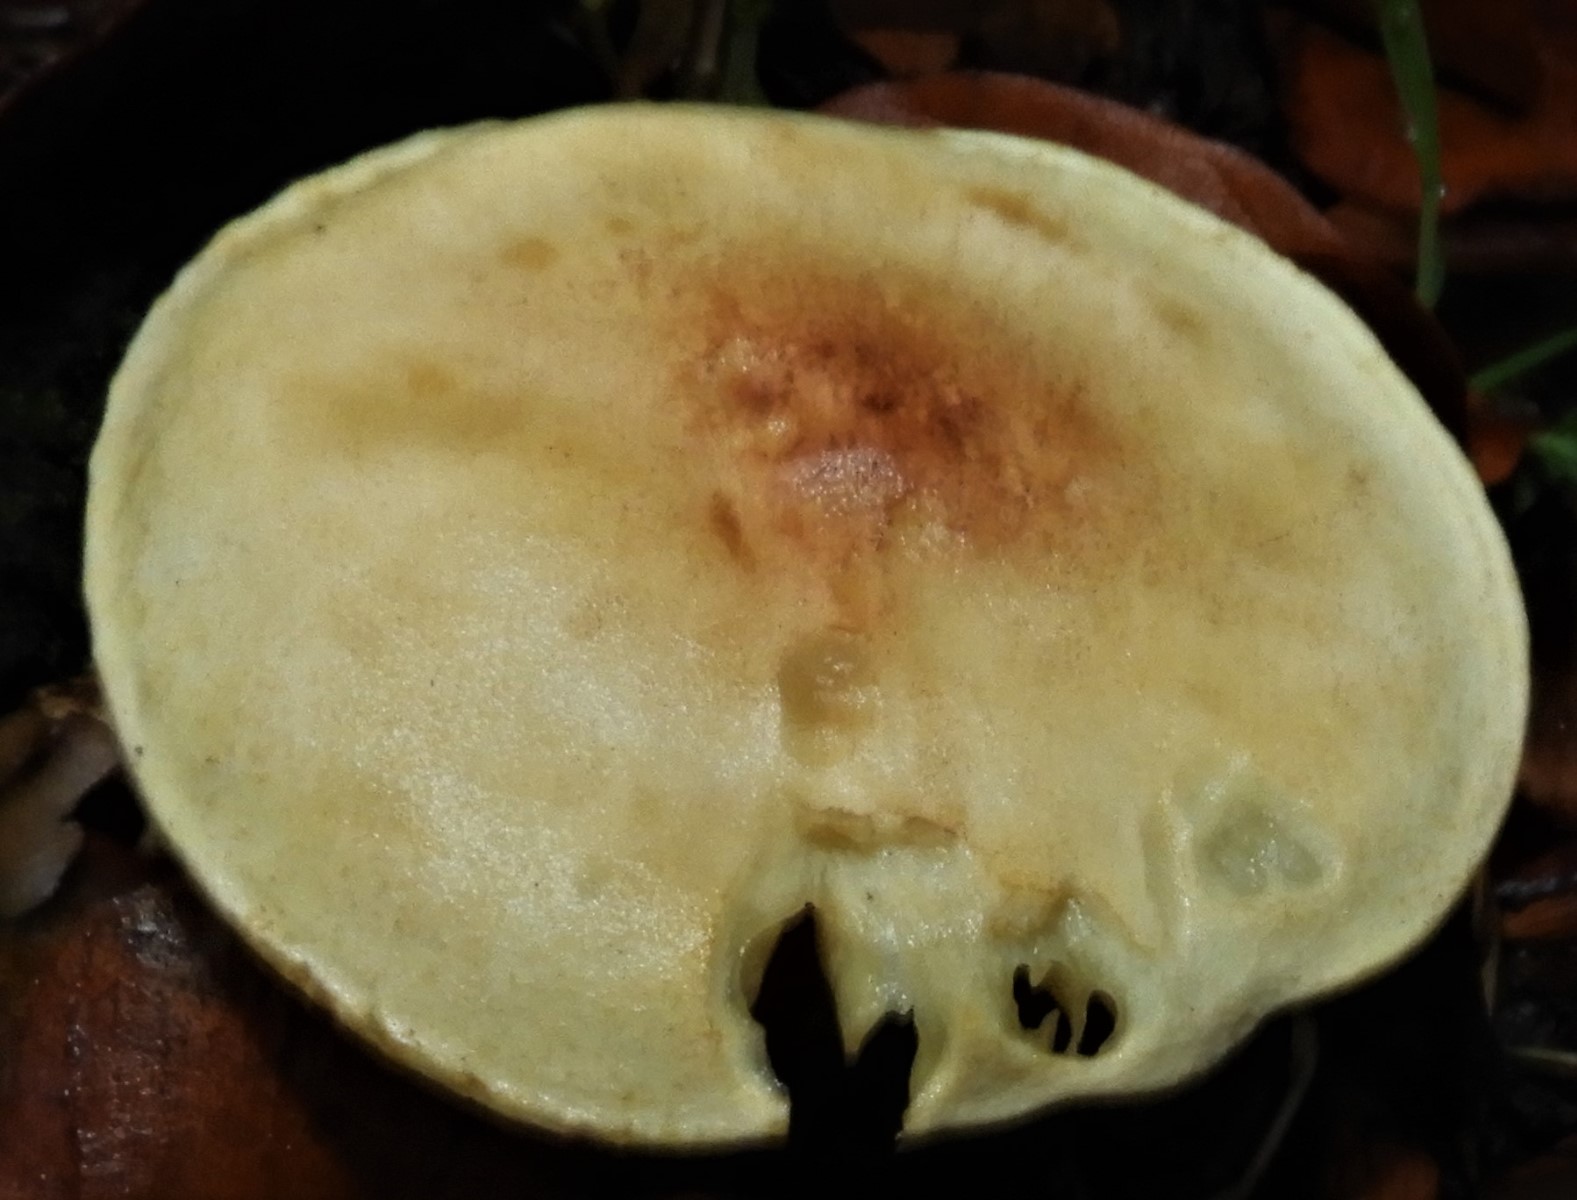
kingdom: Fungi
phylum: Basidiomycota
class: Agaricomycetes
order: Agaricales
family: Tricholomataceae
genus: Tricholoma
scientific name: Tricholoma sulphureum
